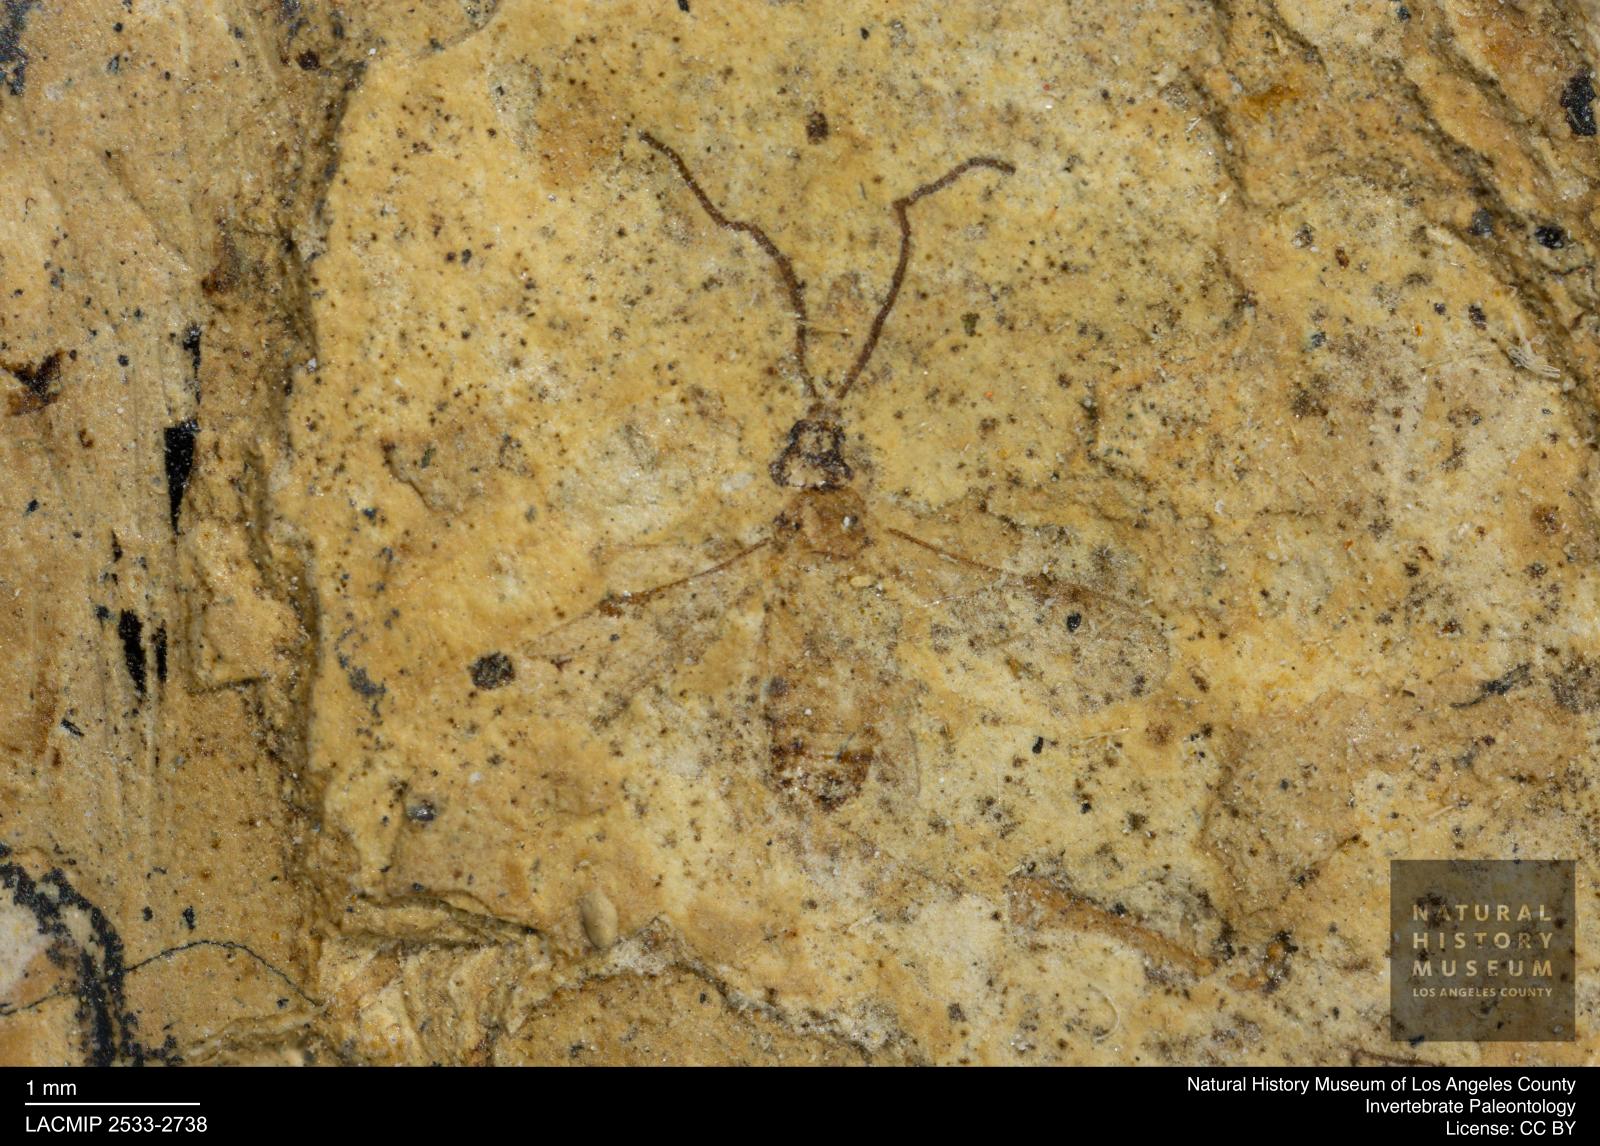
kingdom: Animalia
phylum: Arthropoda
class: Insecta
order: Hymenoptera
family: Braconidae
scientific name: Braconidae
